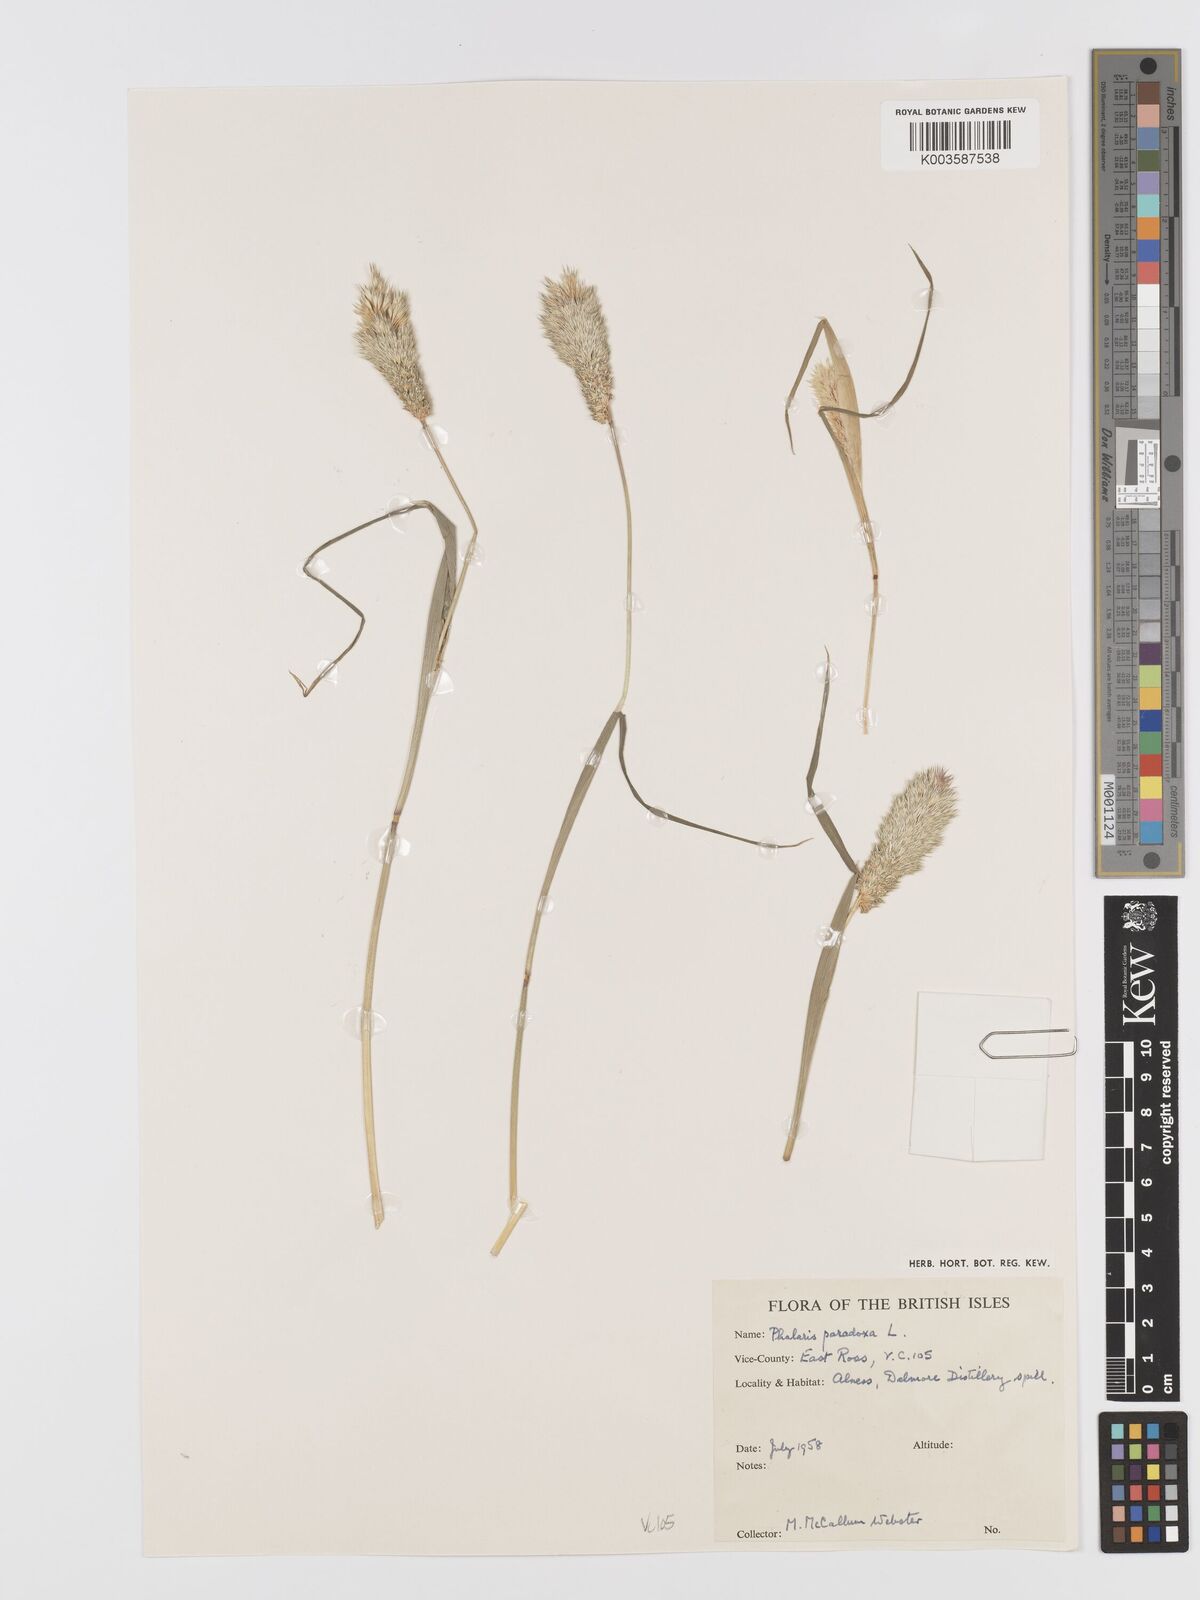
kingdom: Plantae
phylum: Tracheophyta
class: Liliopsida
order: Poales
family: Poaceae
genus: Phalaris
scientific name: Phalaris paradoxa
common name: Awned canary-grass
